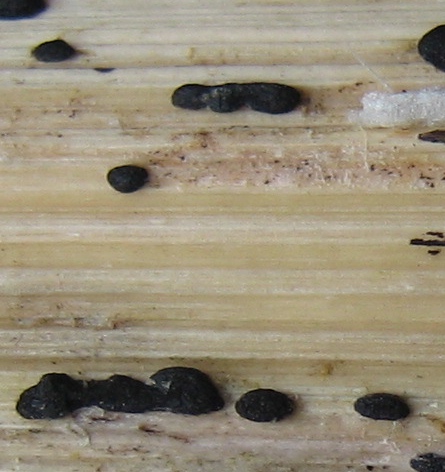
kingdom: Fungi
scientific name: Fungi
